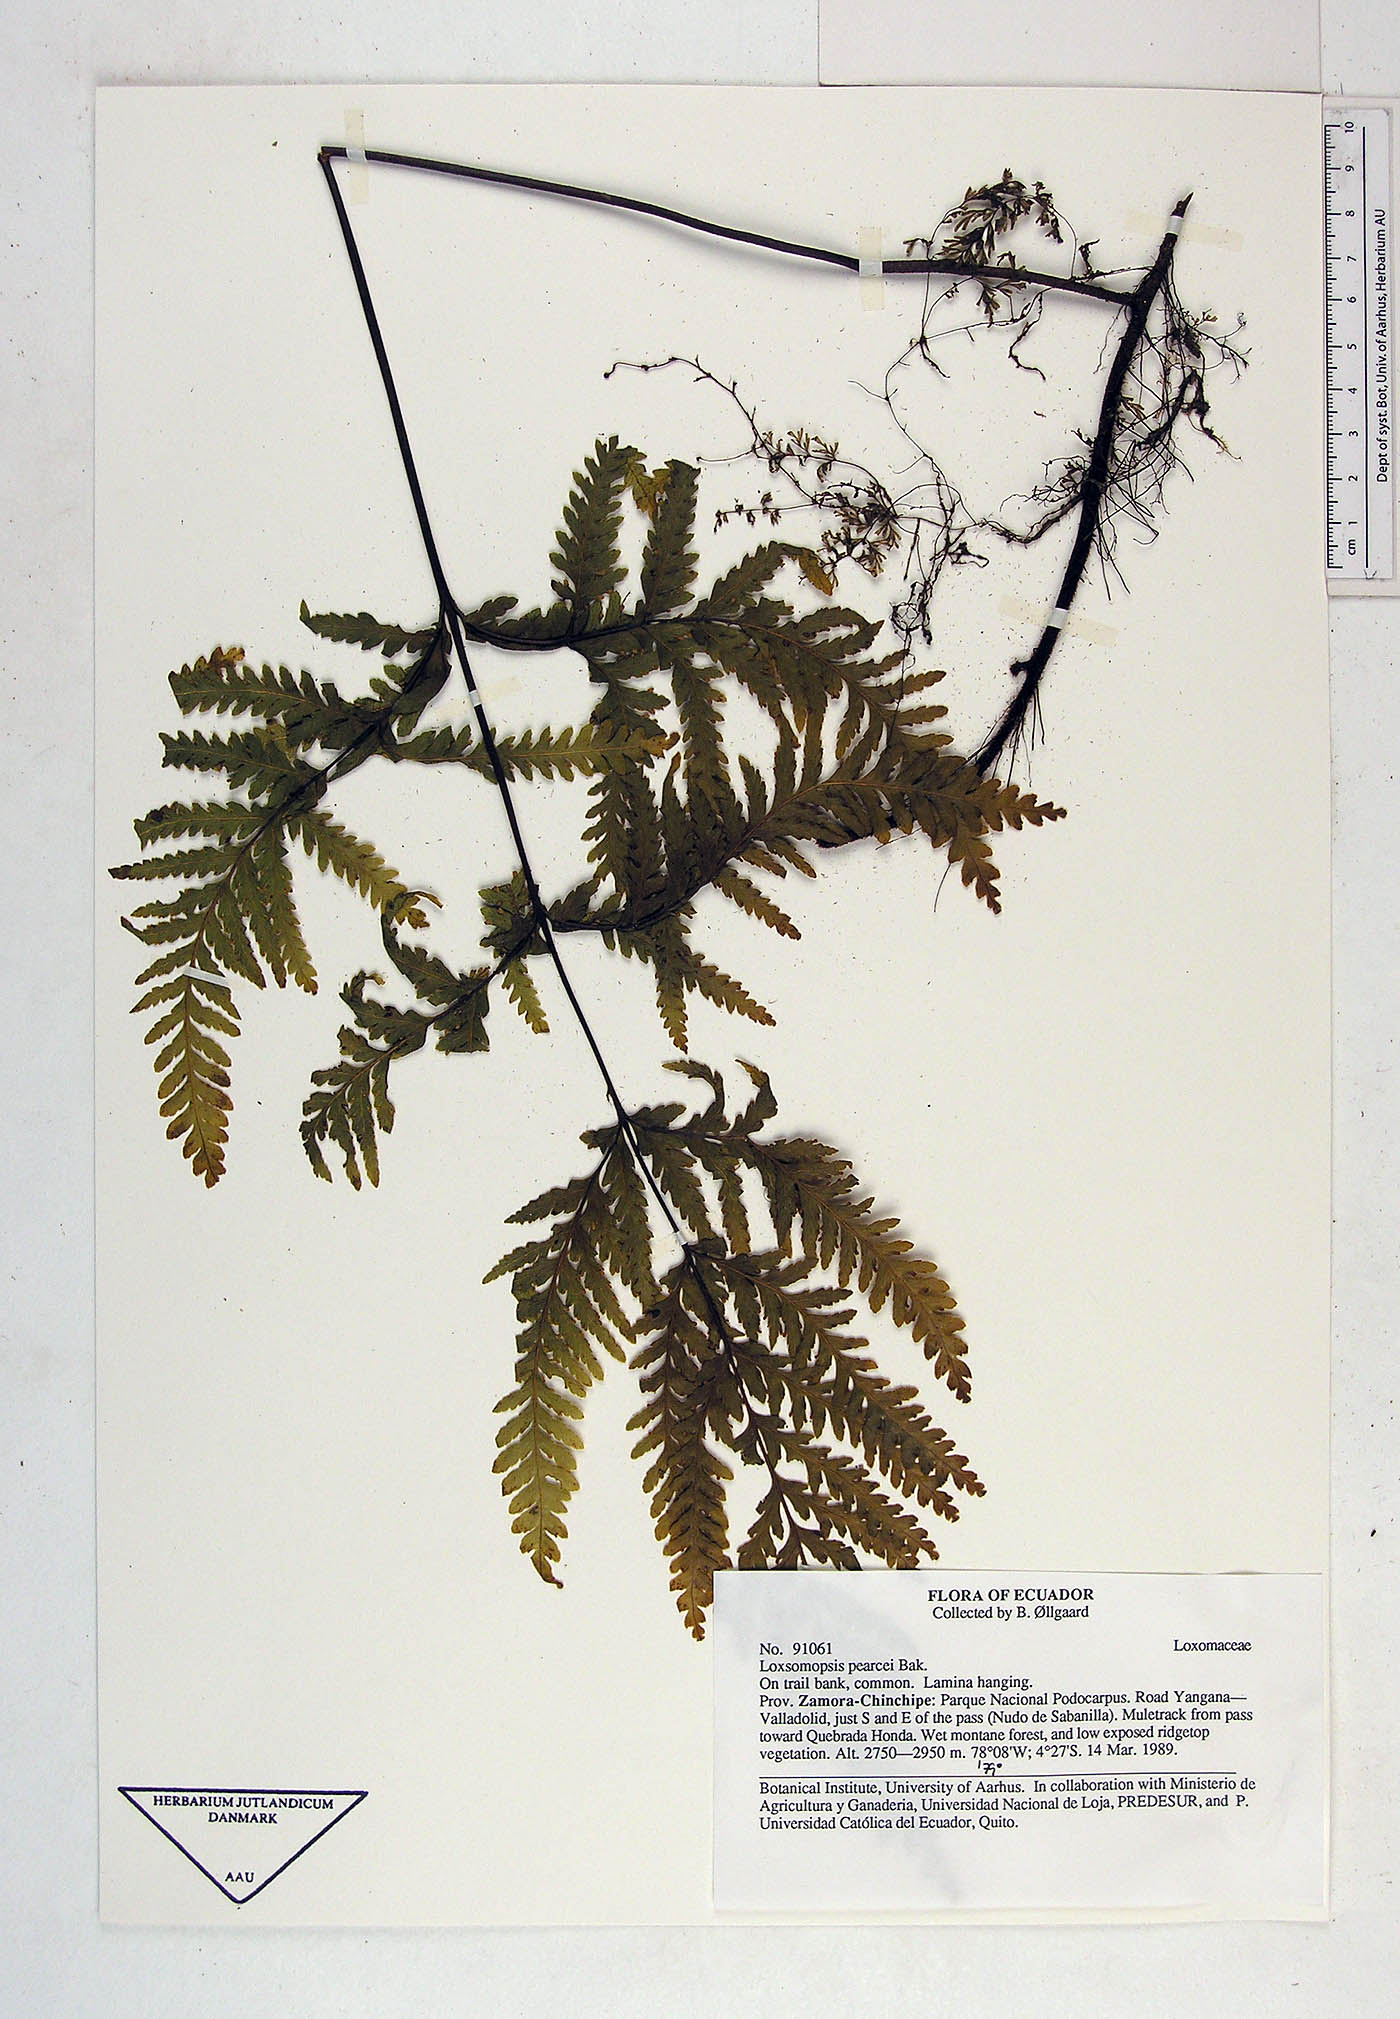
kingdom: Plantae
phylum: Tracheophyta
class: Polypodiopsida
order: Cyatheales
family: Loxsomataceae
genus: Loxsomopsis
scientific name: Loxsomopsis
